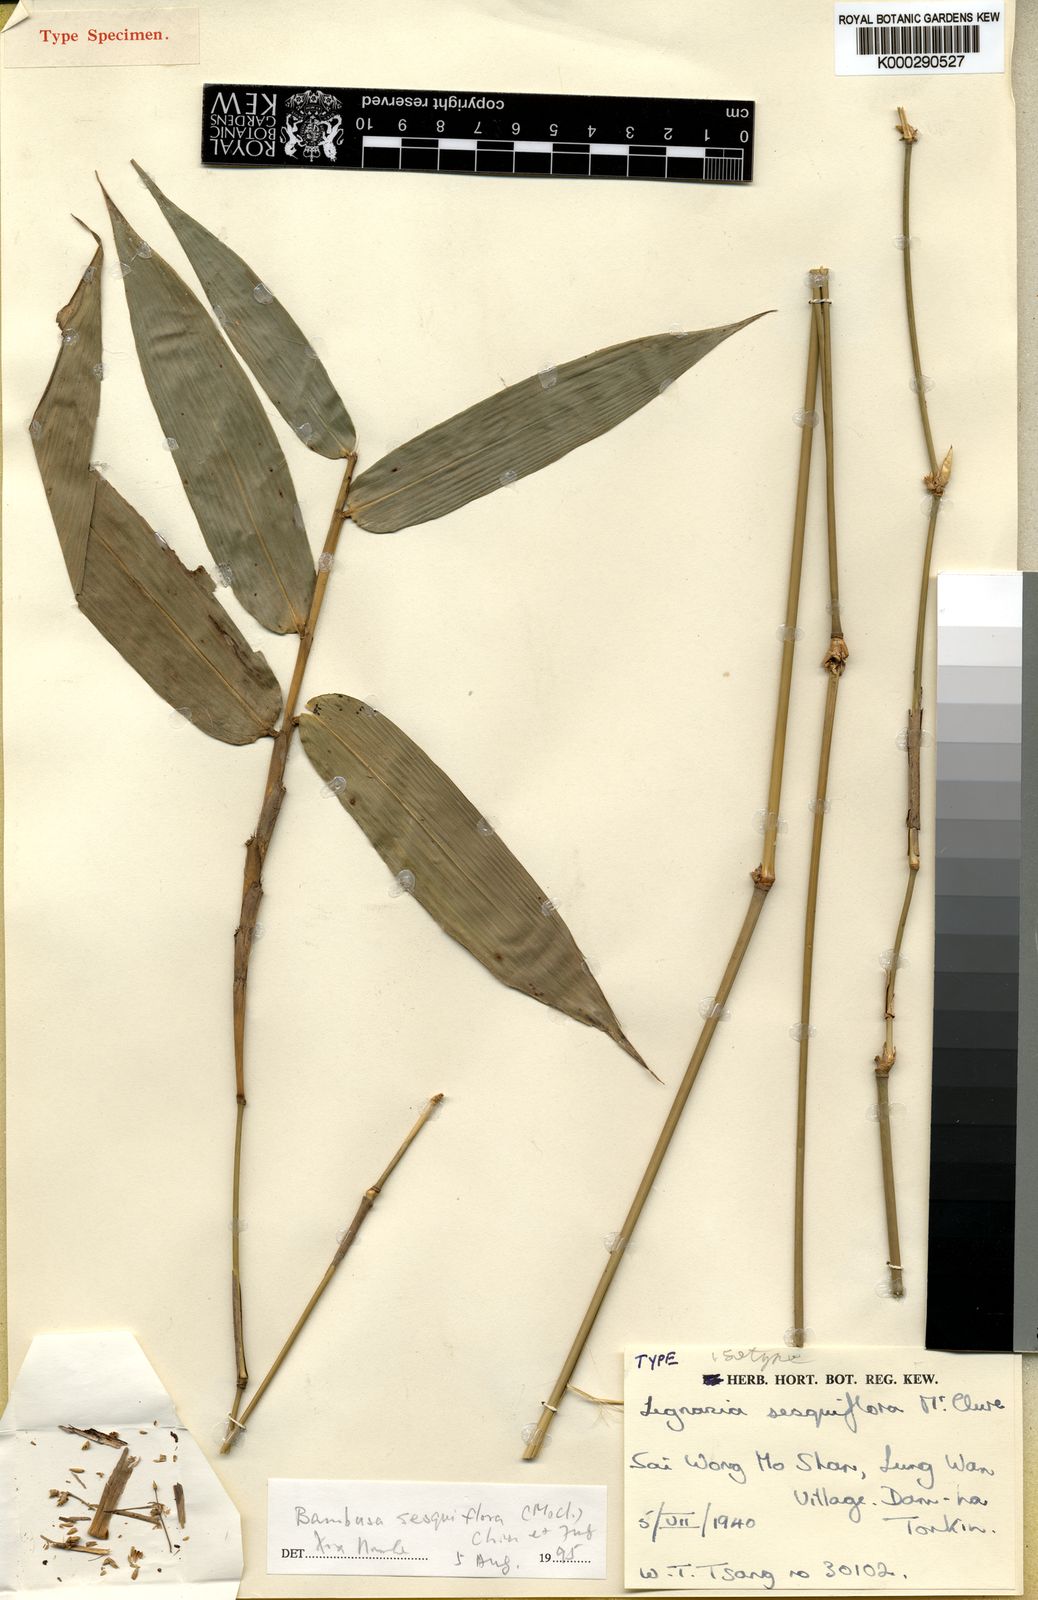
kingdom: Plantae
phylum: Tracheophyta
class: Liliopsida
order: Poales
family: Poaceae
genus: Bambusa
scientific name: Bambusa sesquiflora
